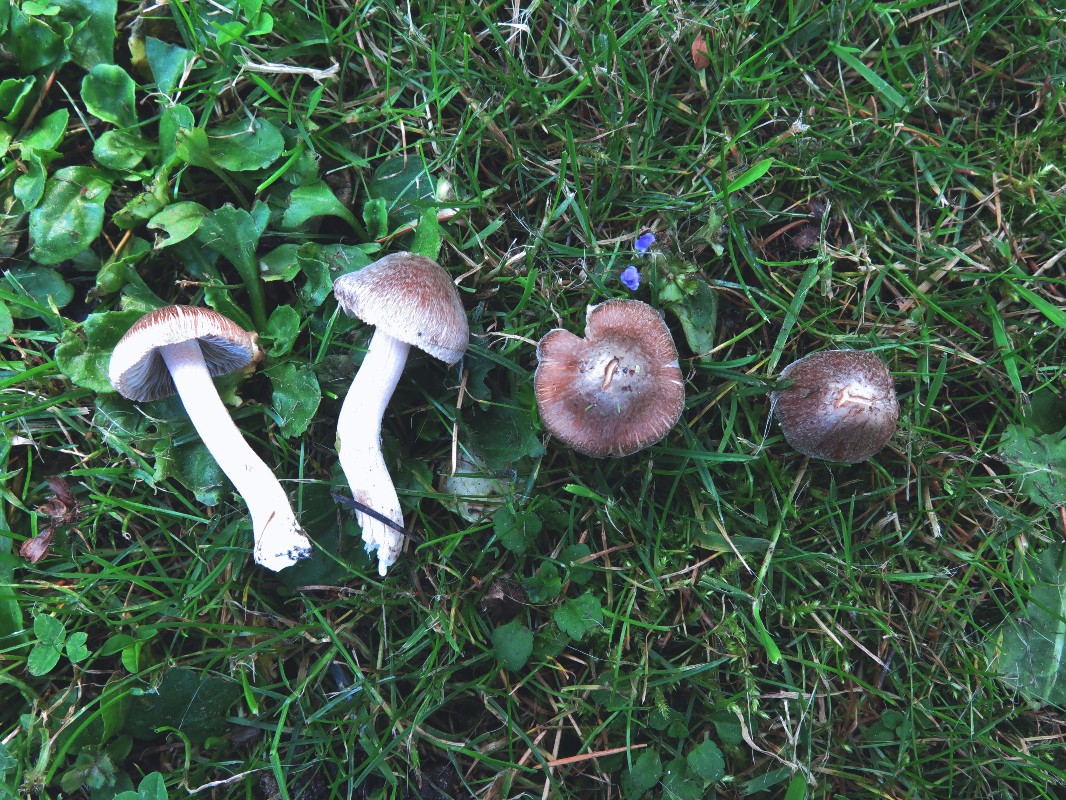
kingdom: Fungi
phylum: Basidiomycota
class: Agaricomycetes
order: Agaricales
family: Inocybaceae
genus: Inosperma
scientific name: Inosperma
